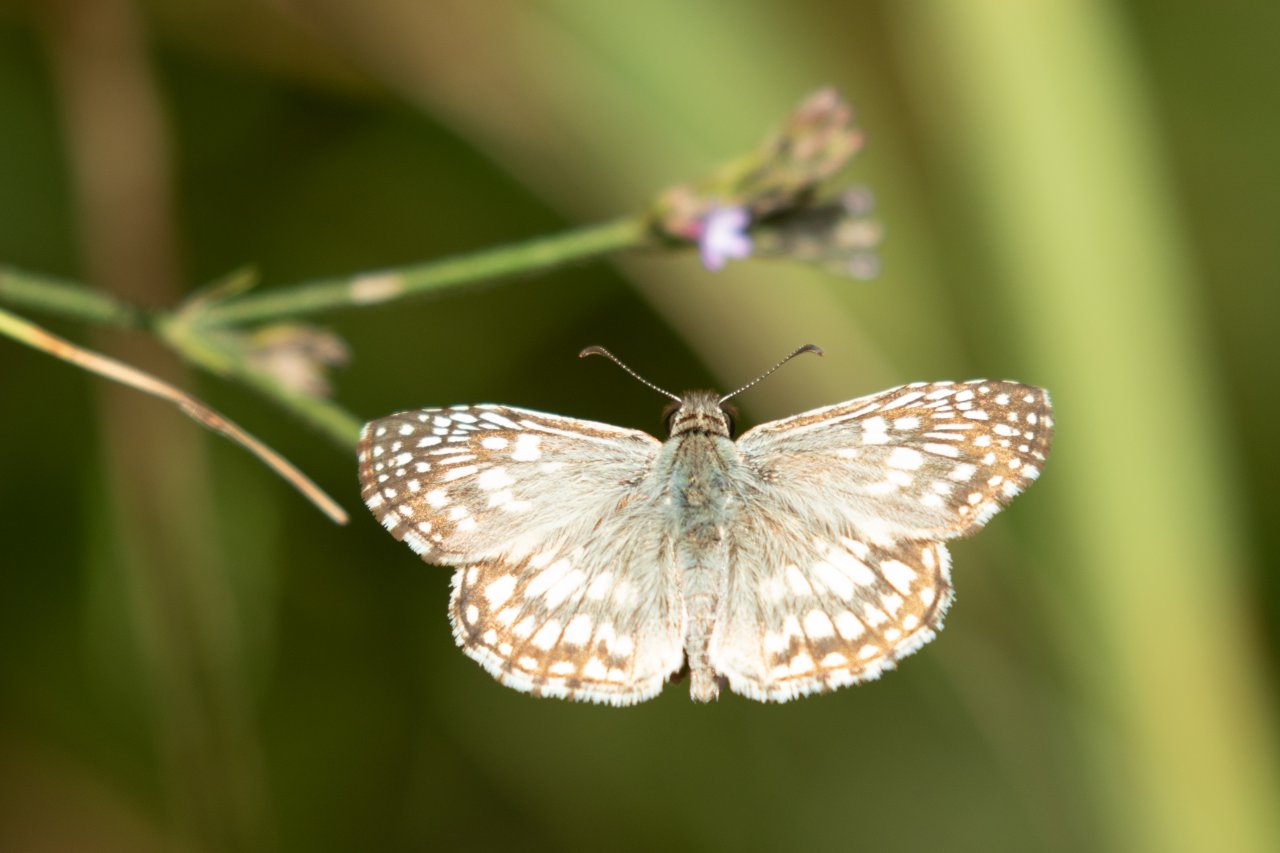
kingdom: Animalia
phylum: Arthropoda
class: Insecta
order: Lepidoptera
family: Hesperiidae
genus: Pyrgus
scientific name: Pyrgus oileus
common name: Tropical Checkered-Skipper
